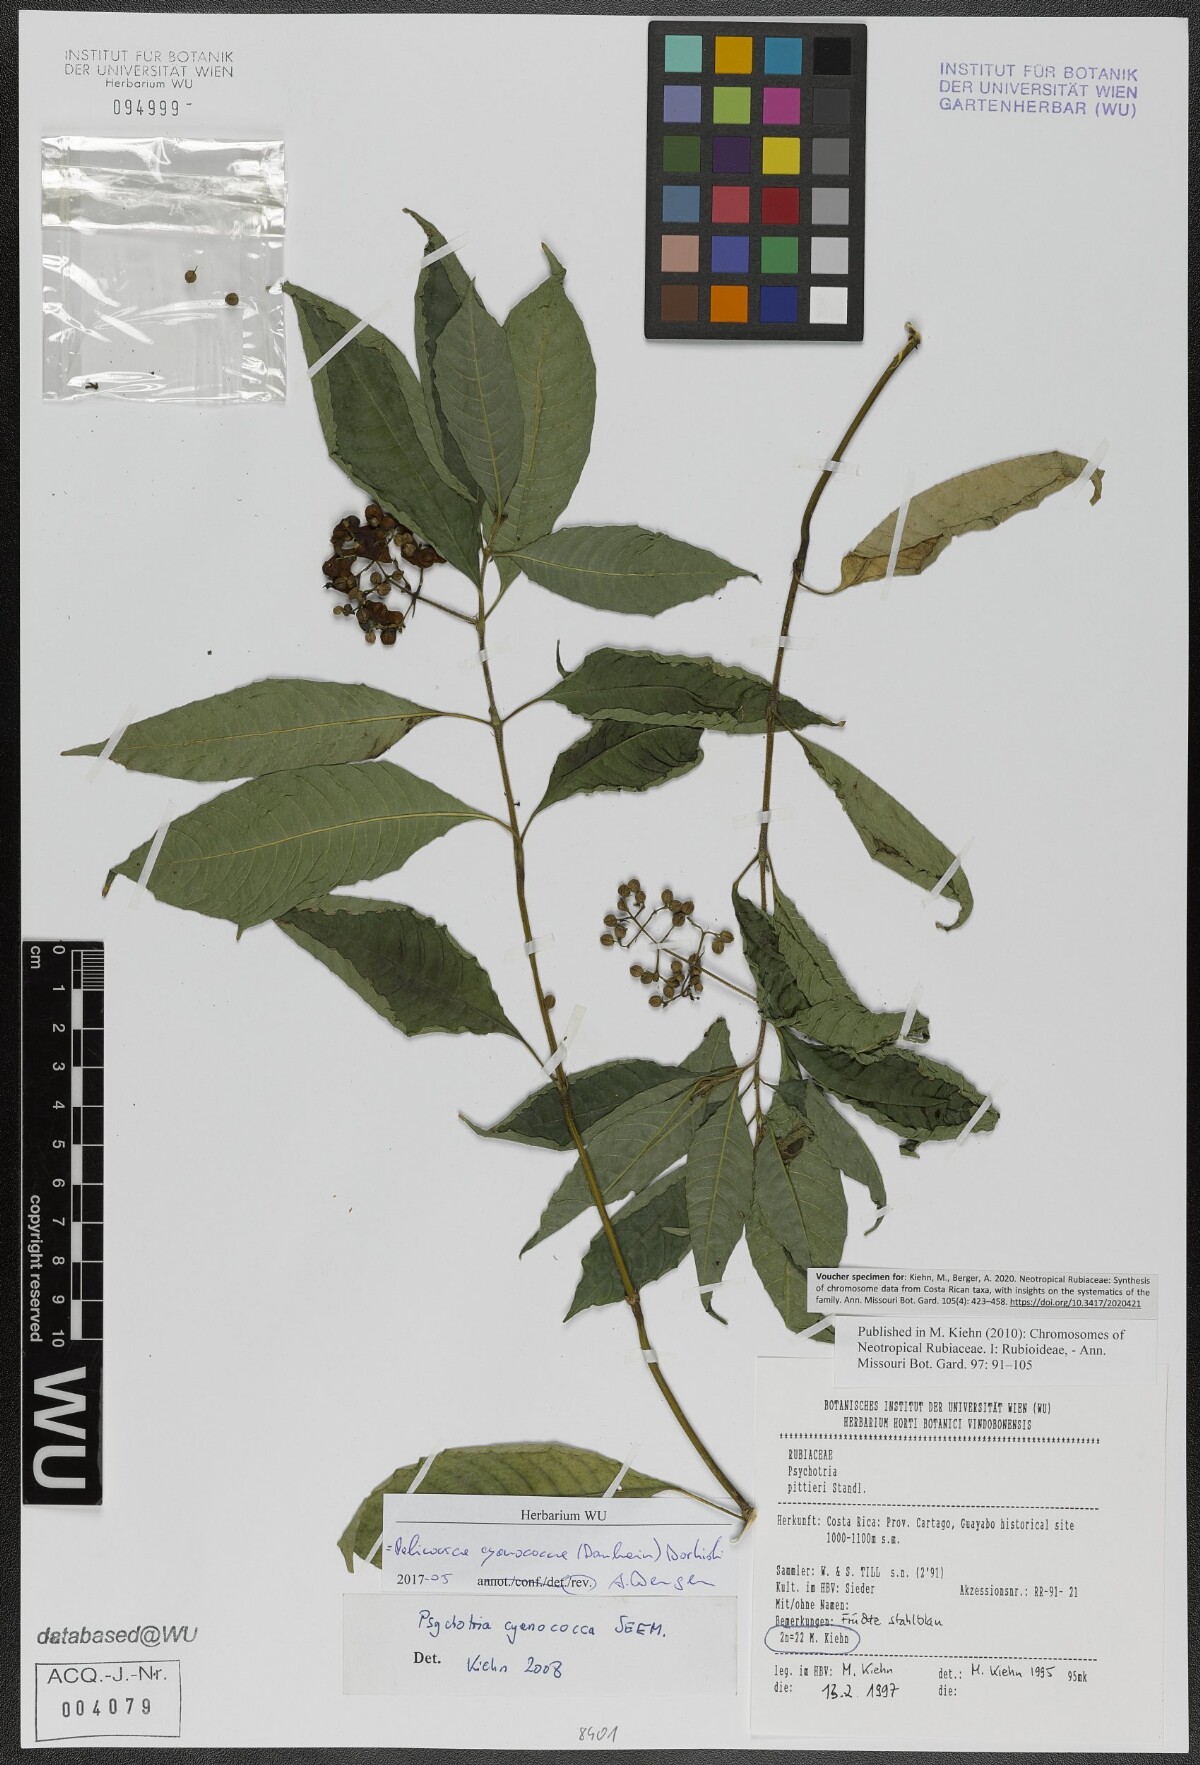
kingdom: Plantae
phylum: Tracheophyta
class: Magnoliopsida
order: Gentianales
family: Rubiaceae
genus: Palicourea
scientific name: Palicourea cyanococca
